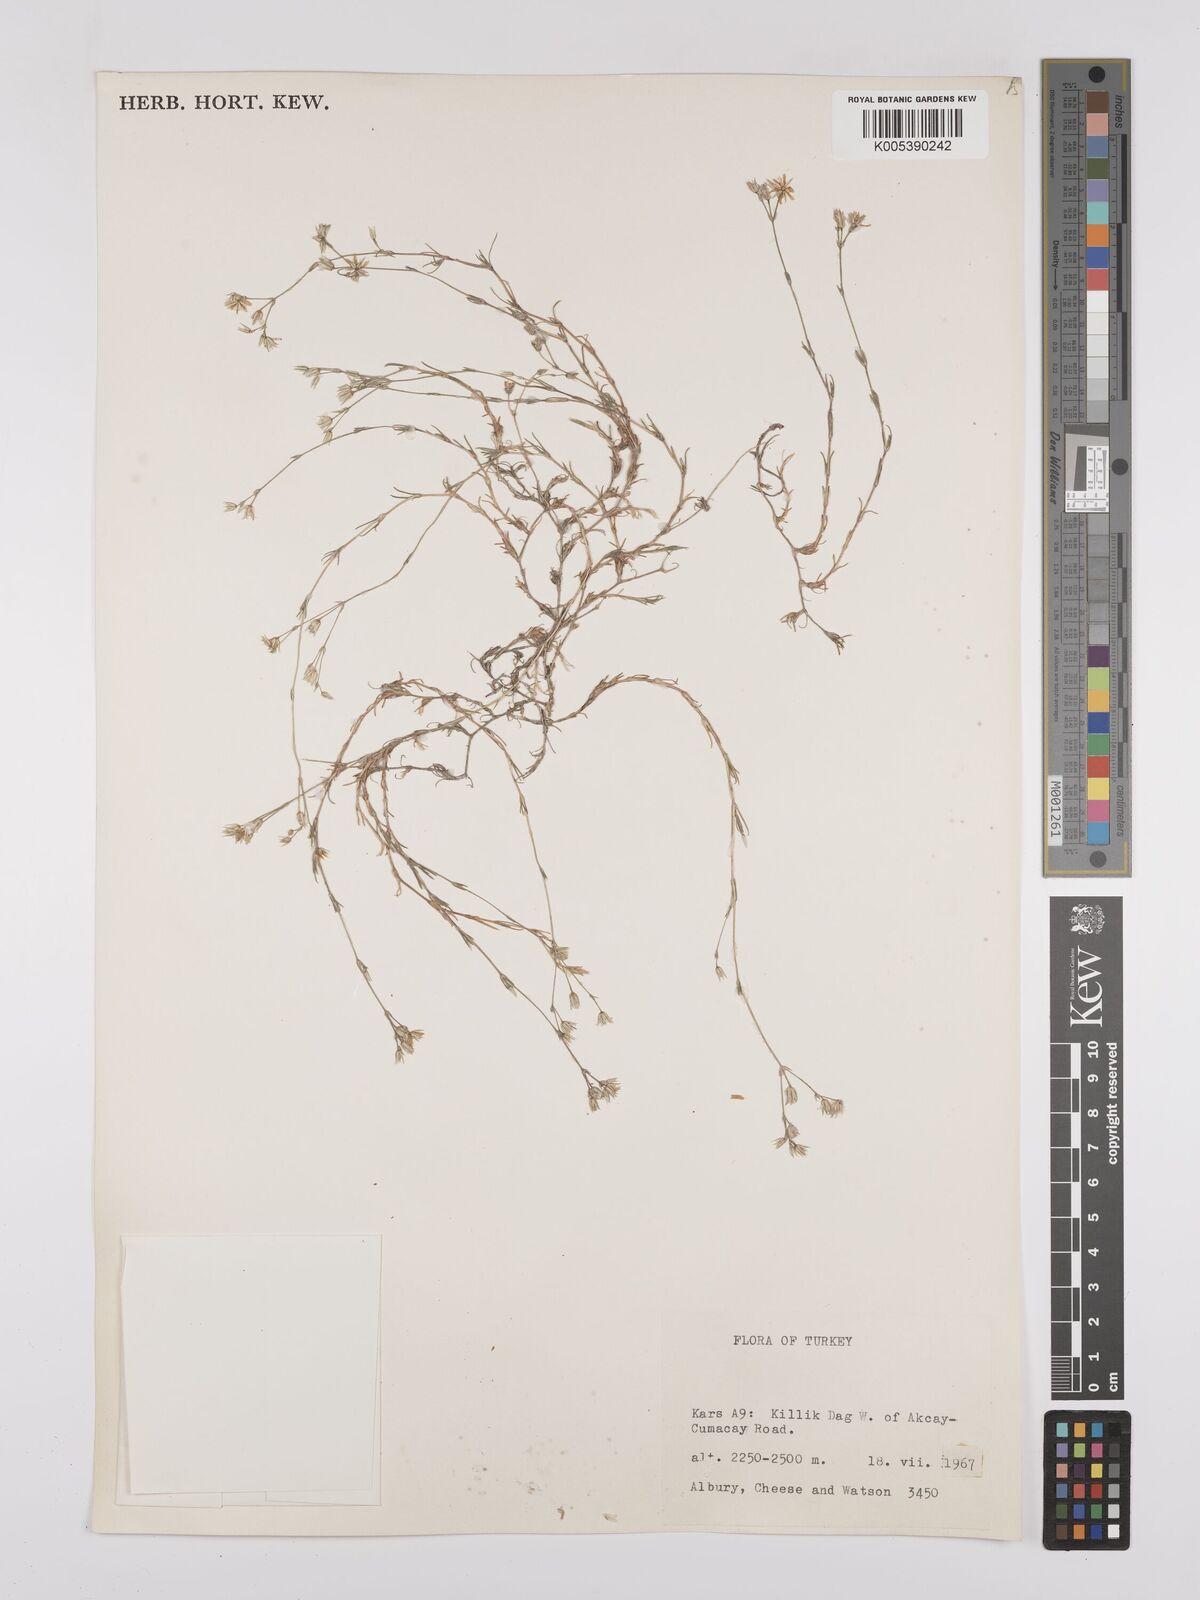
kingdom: Plantae
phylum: Tracheophyta
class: Magnoliopsida
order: Caryophyllales
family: Caryophyllaceae
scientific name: Caryophyllaceae
